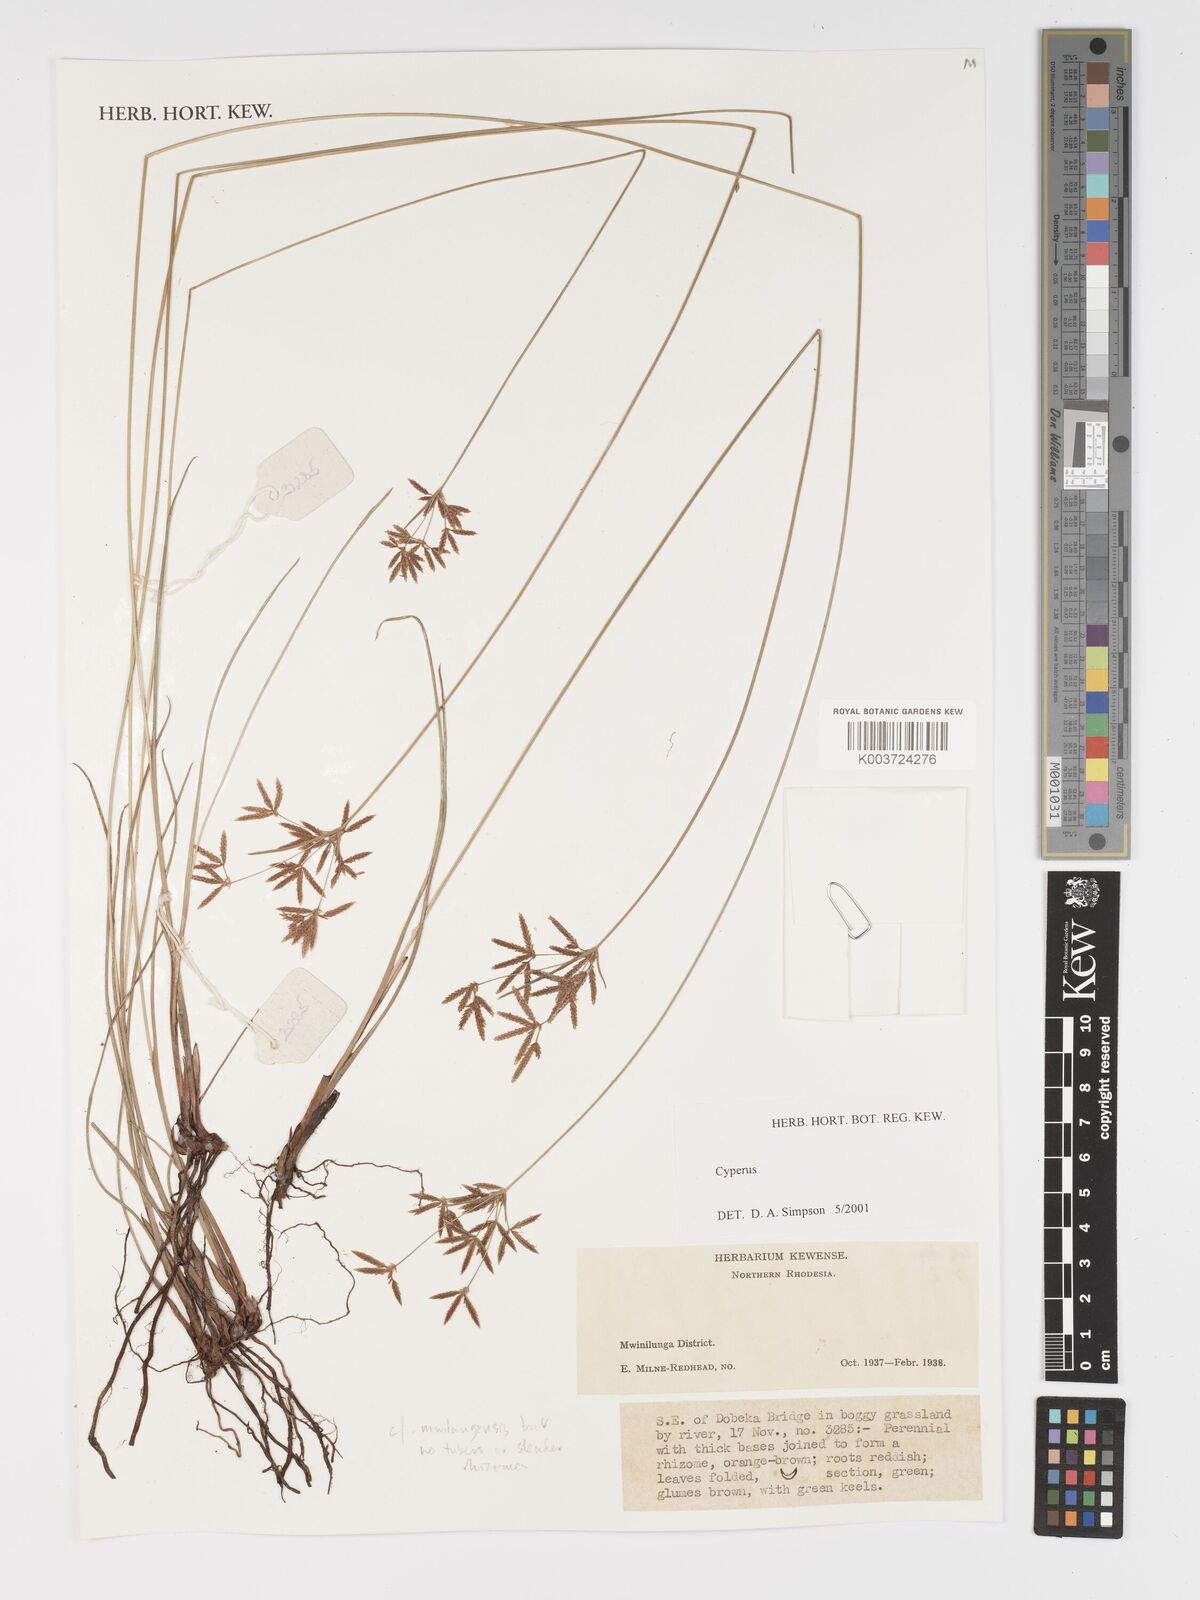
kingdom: Plantae
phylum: Tracheophyta
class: Liliopsida
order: Poales
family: Cyperaceae
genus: Cyperus
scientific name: Cyperus
